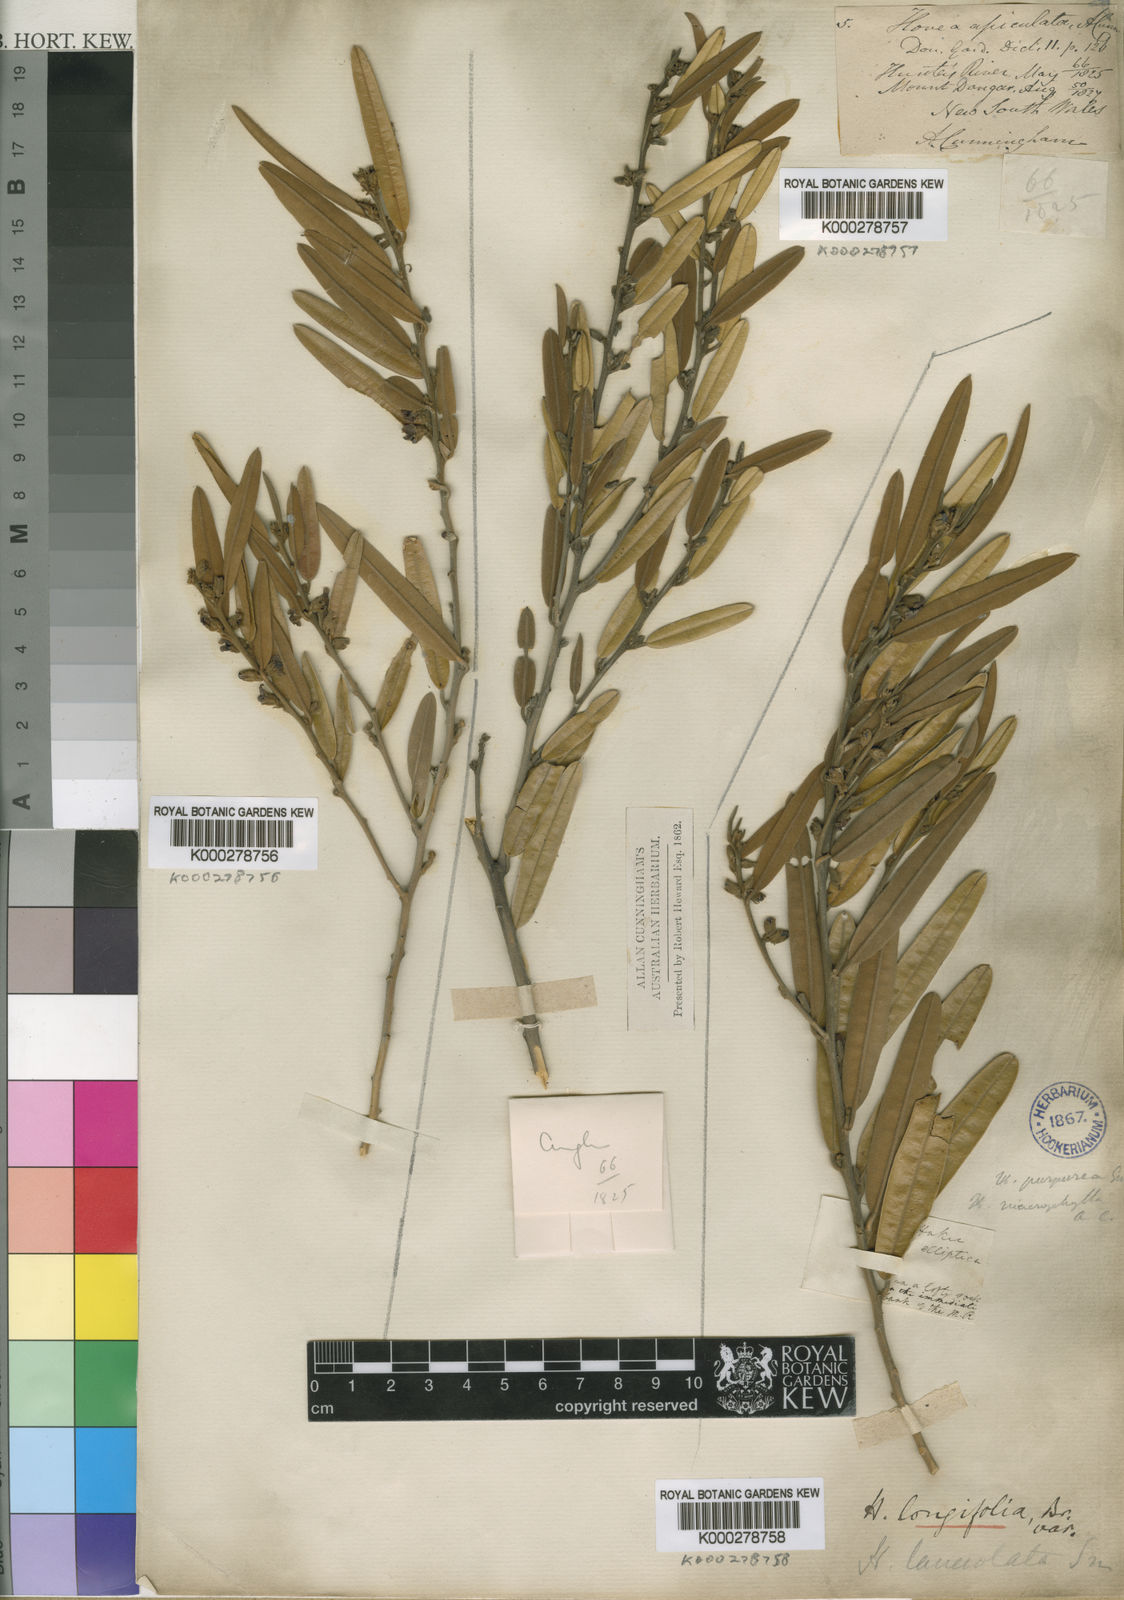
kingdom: Plantae
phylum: Tracheophyta
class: Magnoliopsida
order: Fabales
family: Fabaceae
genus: Hovea
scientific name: Hovea lanceolata
